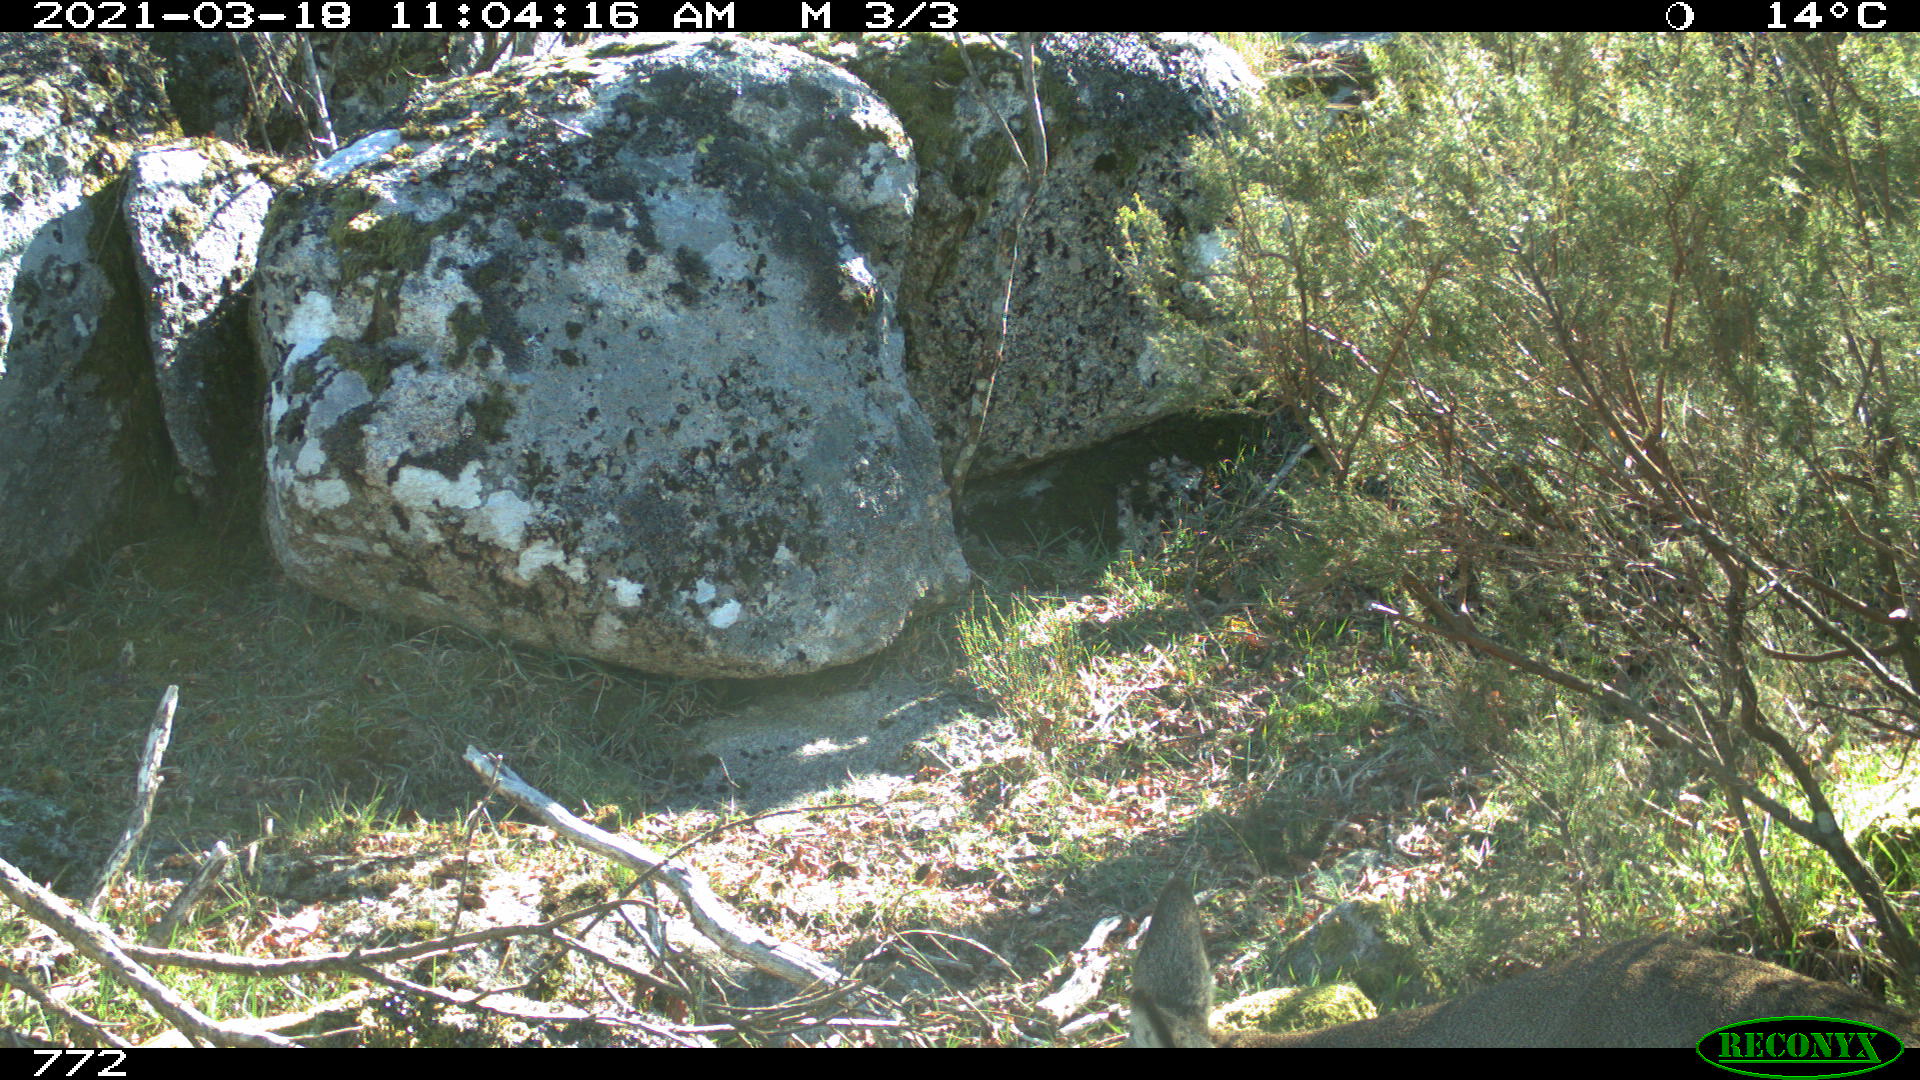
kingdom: Animalia
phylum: Chordata
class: Mammalia
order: Artiodactyla
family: Cervidae
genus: Capreolus
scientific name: Capreolus capreolus
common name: Western roe deer
